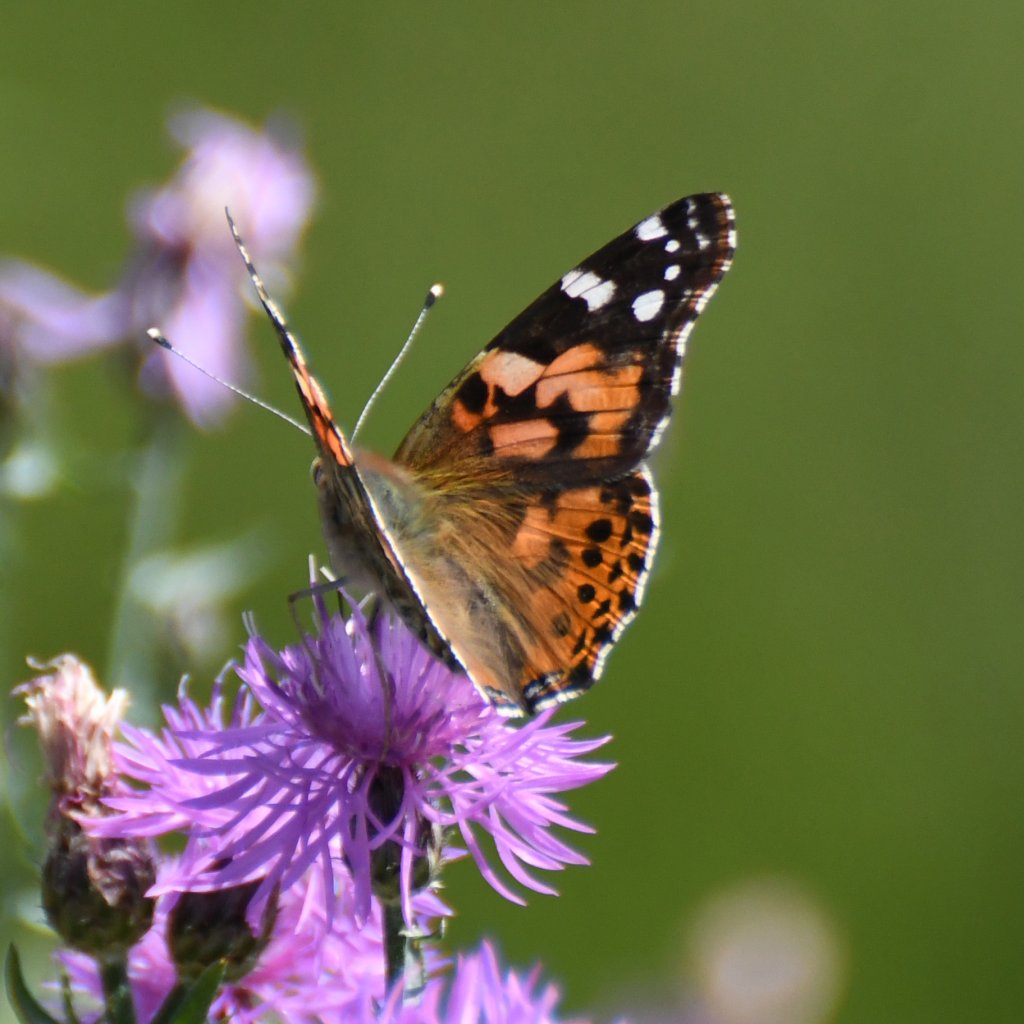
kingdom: Animalia
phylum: Arthropoda
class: Insecta
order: Lepidoptera
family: Nymphalidae
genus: Vanessa
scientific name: Vanessa cardui
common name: Painted Lady
